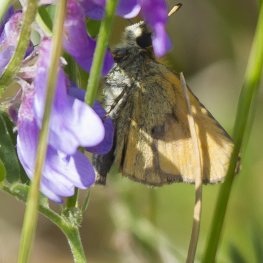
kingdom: Animalia
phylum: Arthropoda
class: Insecta
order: Lepidoptera
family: Hesperiidae
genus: Thymelicus
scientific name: Thymelicus lineola
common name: European Skipper
